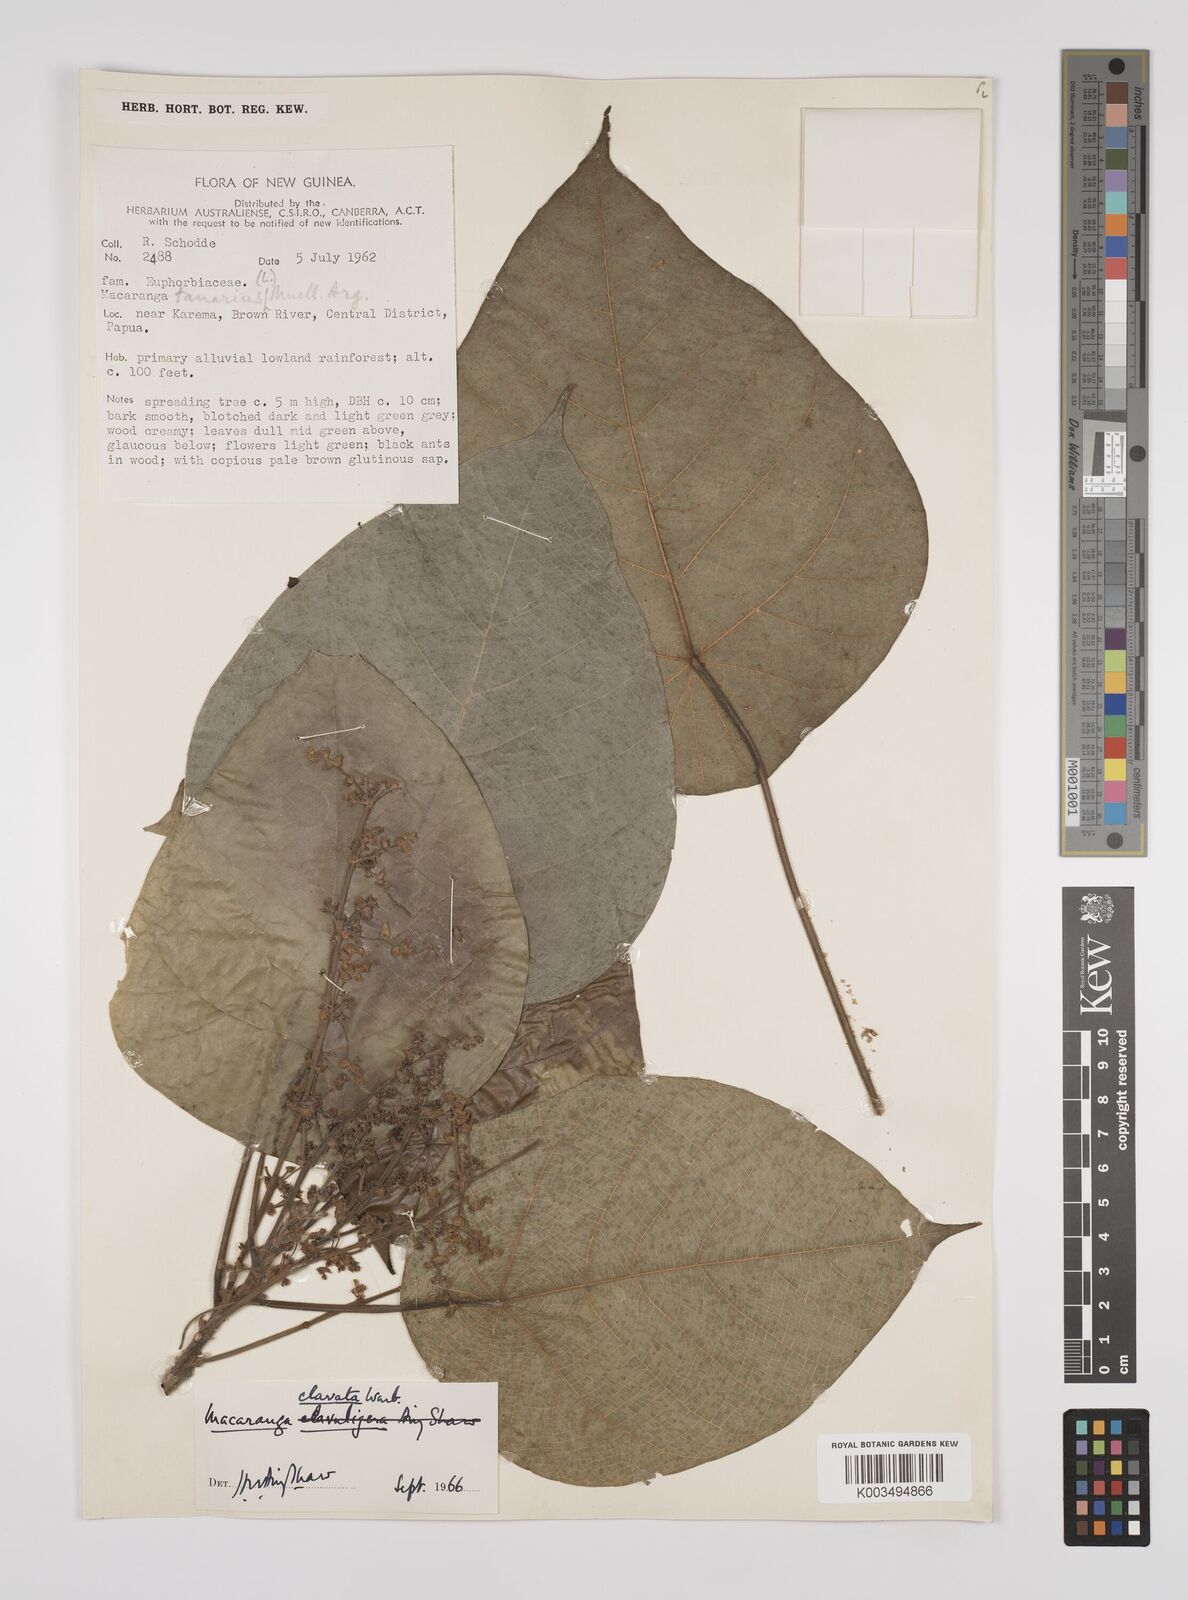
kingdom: Plantae
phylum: Tracheophyta
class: Magnoliopsida
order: Malpighiales
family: Euphorbiaceae
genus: Macaranga
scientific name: Macaranga clavata
